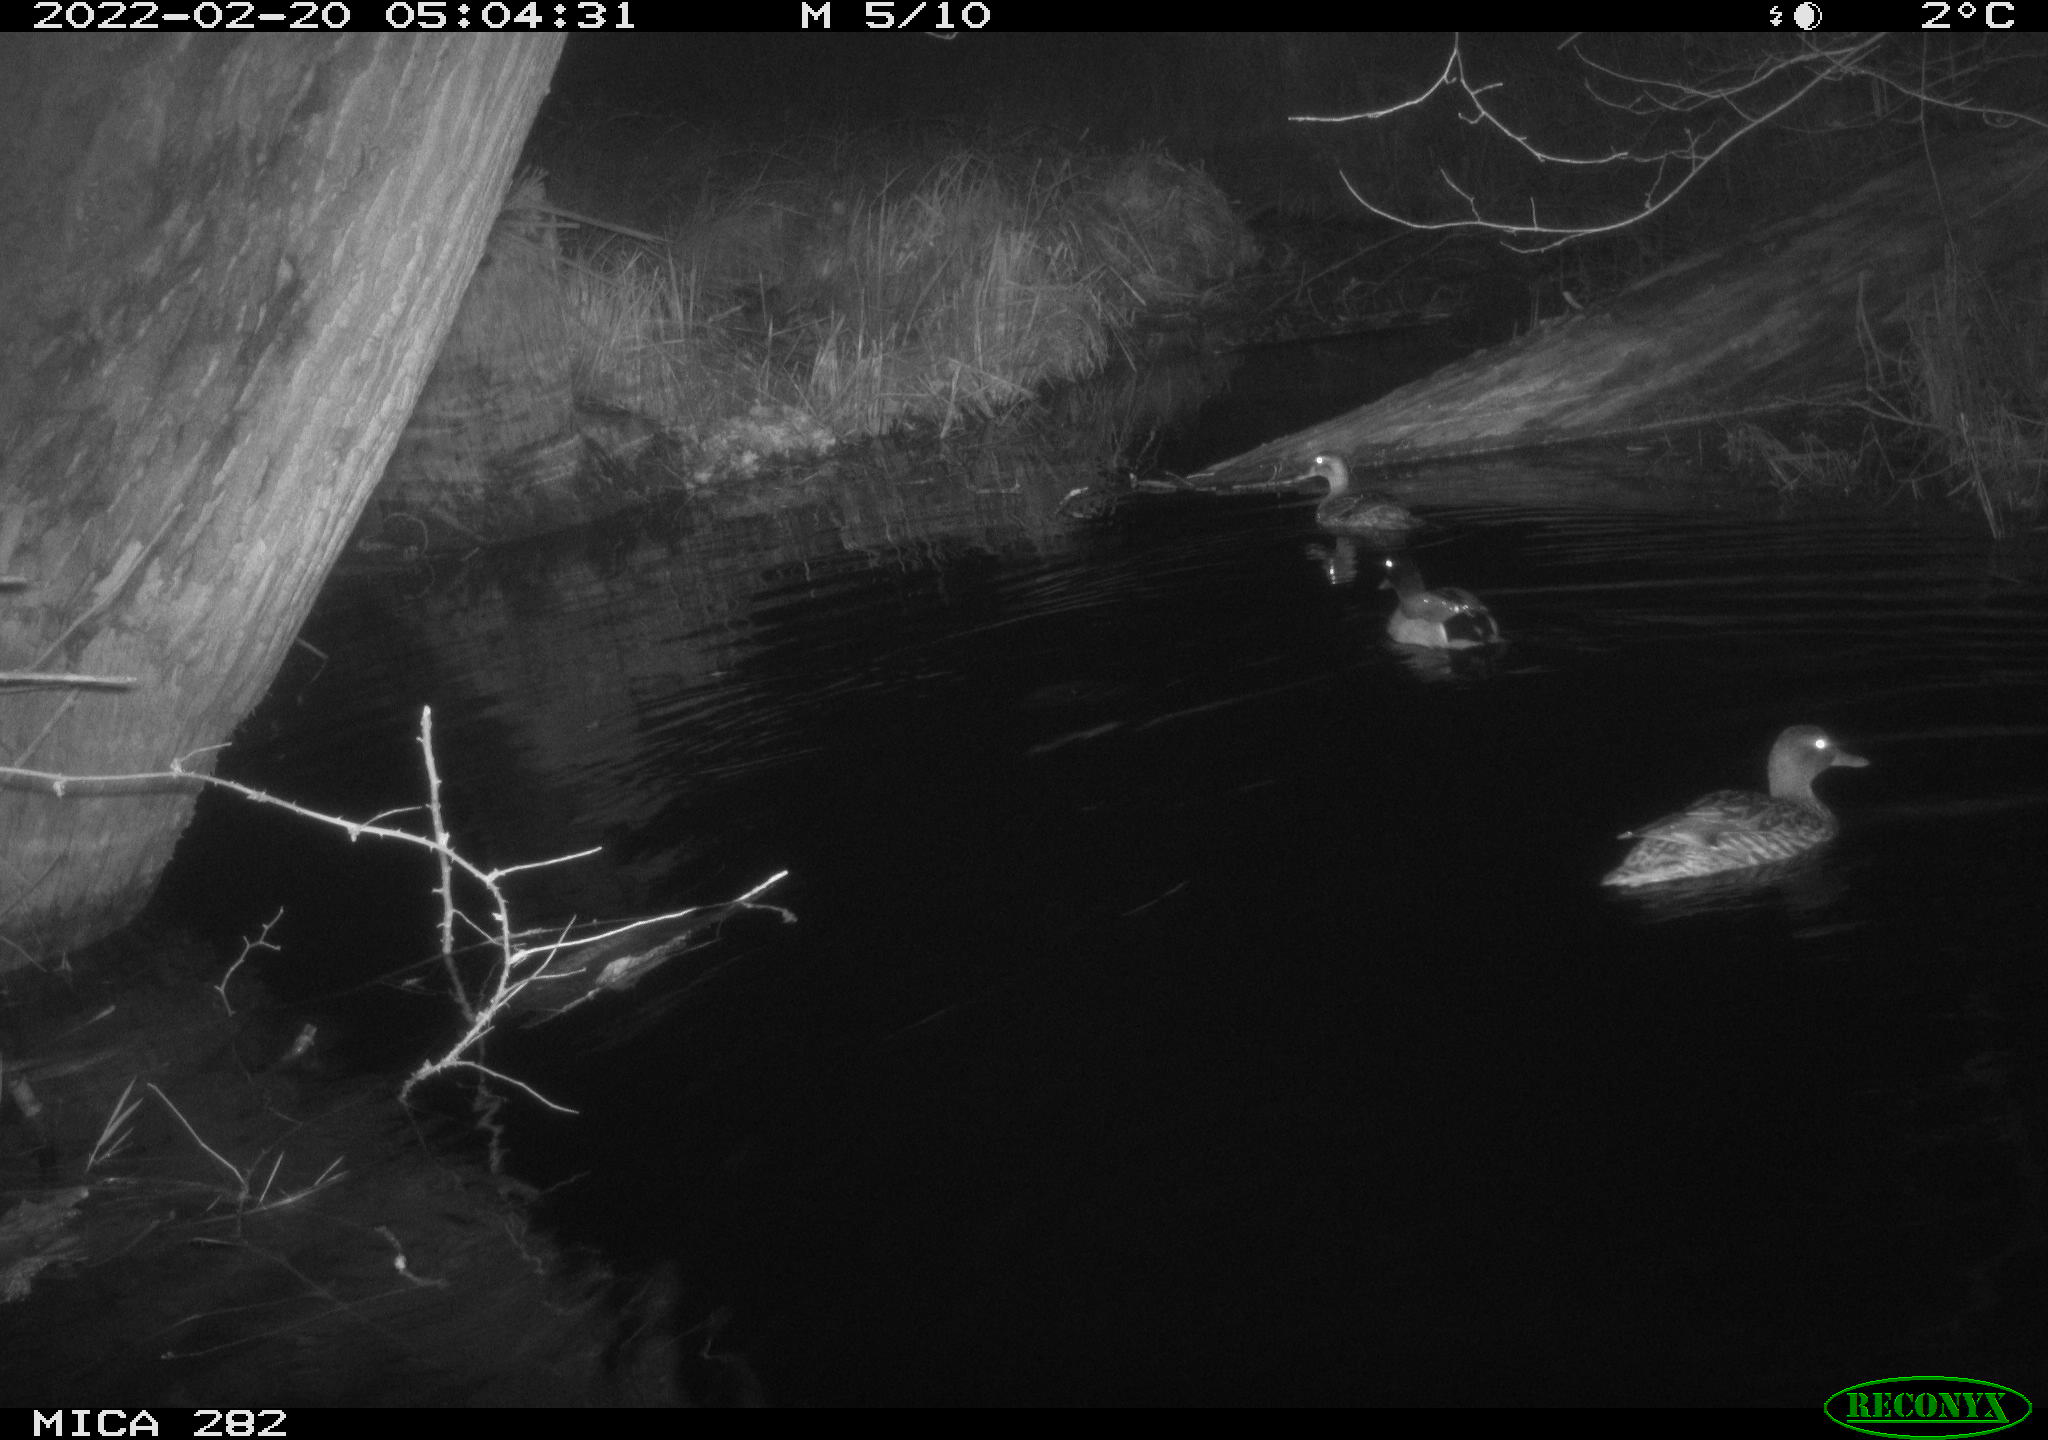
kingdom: Animalia
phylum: Chordata
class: Aves
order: Anseriformes
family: Anatidae
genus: Anas
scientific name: Anas platyrhynchos
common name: Mallard
